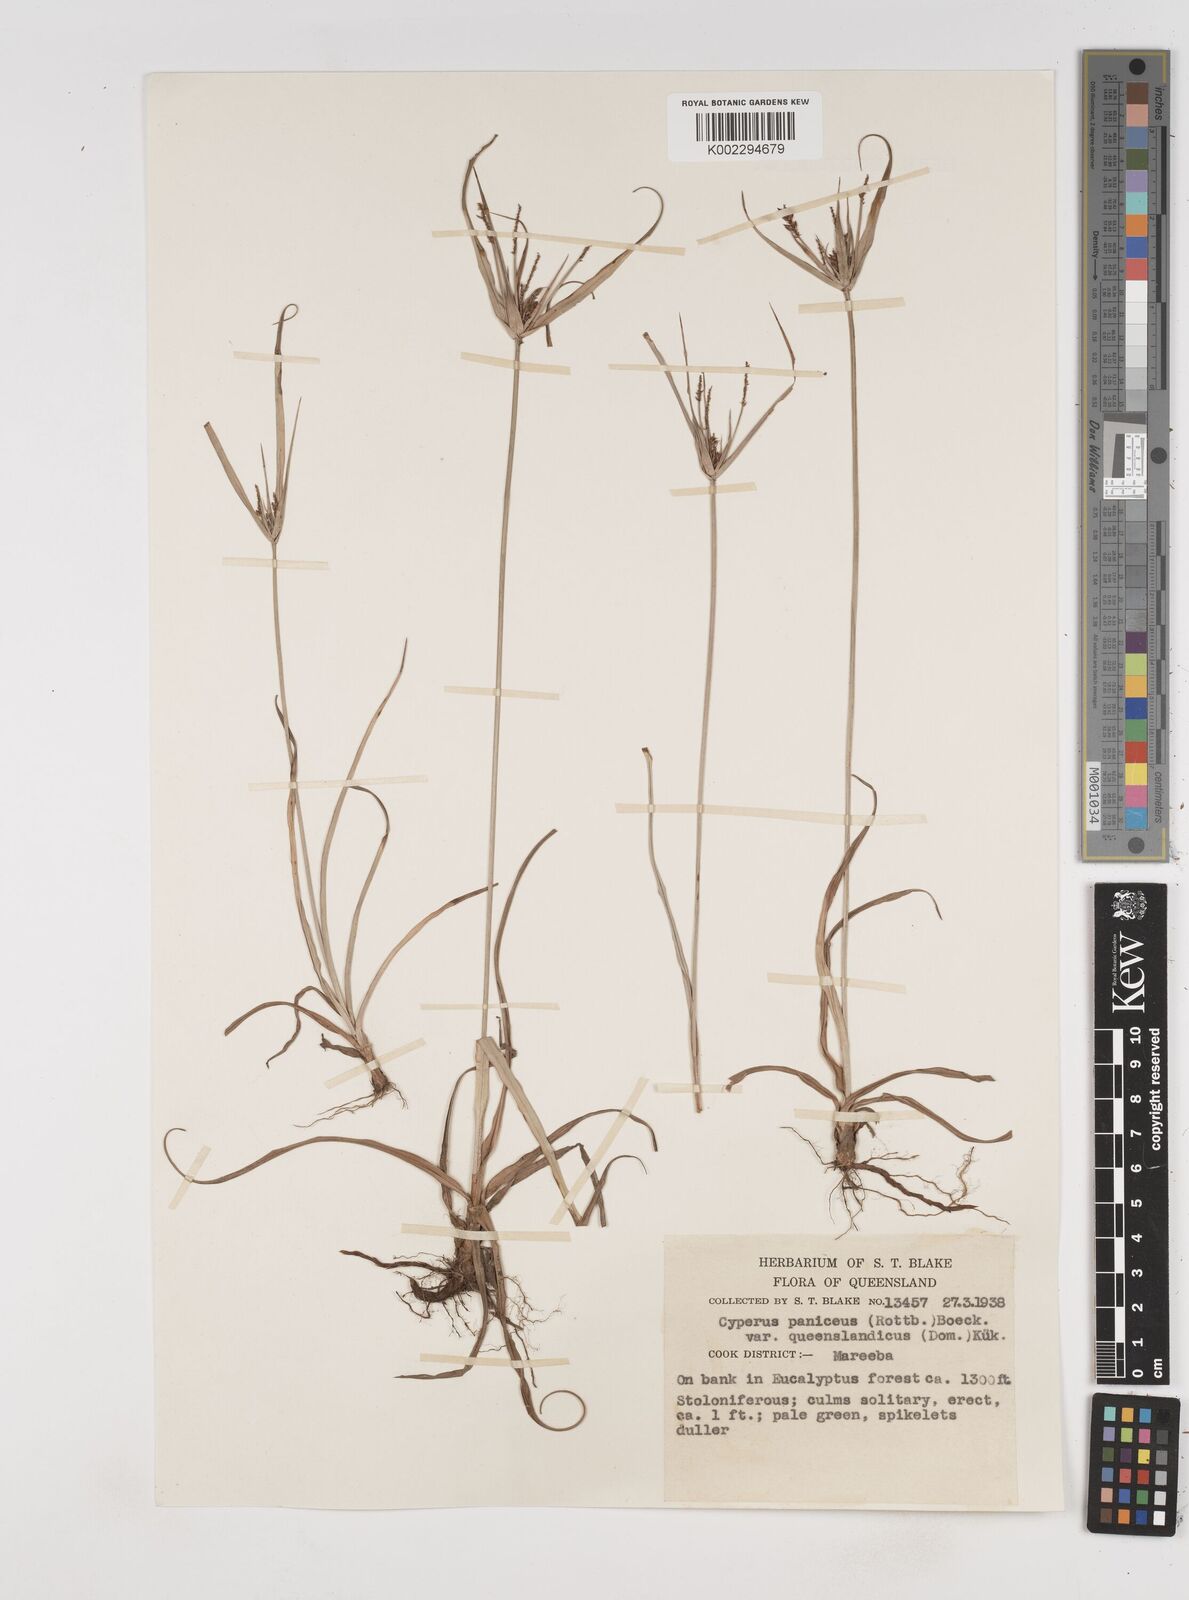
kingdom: Plantae
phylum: Tracheophyta
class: Liliopsida
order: Poales
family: Cyperaceae
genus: Cyperus
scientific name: Cyperus paniceus
